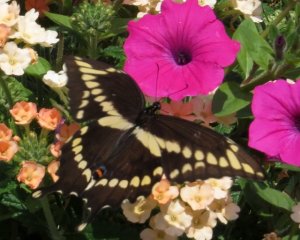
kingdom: Animalia
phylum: Arthropoda
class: Insecta
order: Lepidoptera
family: Papilionidae
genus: Papilio
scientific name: Papilio cresphontes
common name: Eastern Giant Swallowtail
